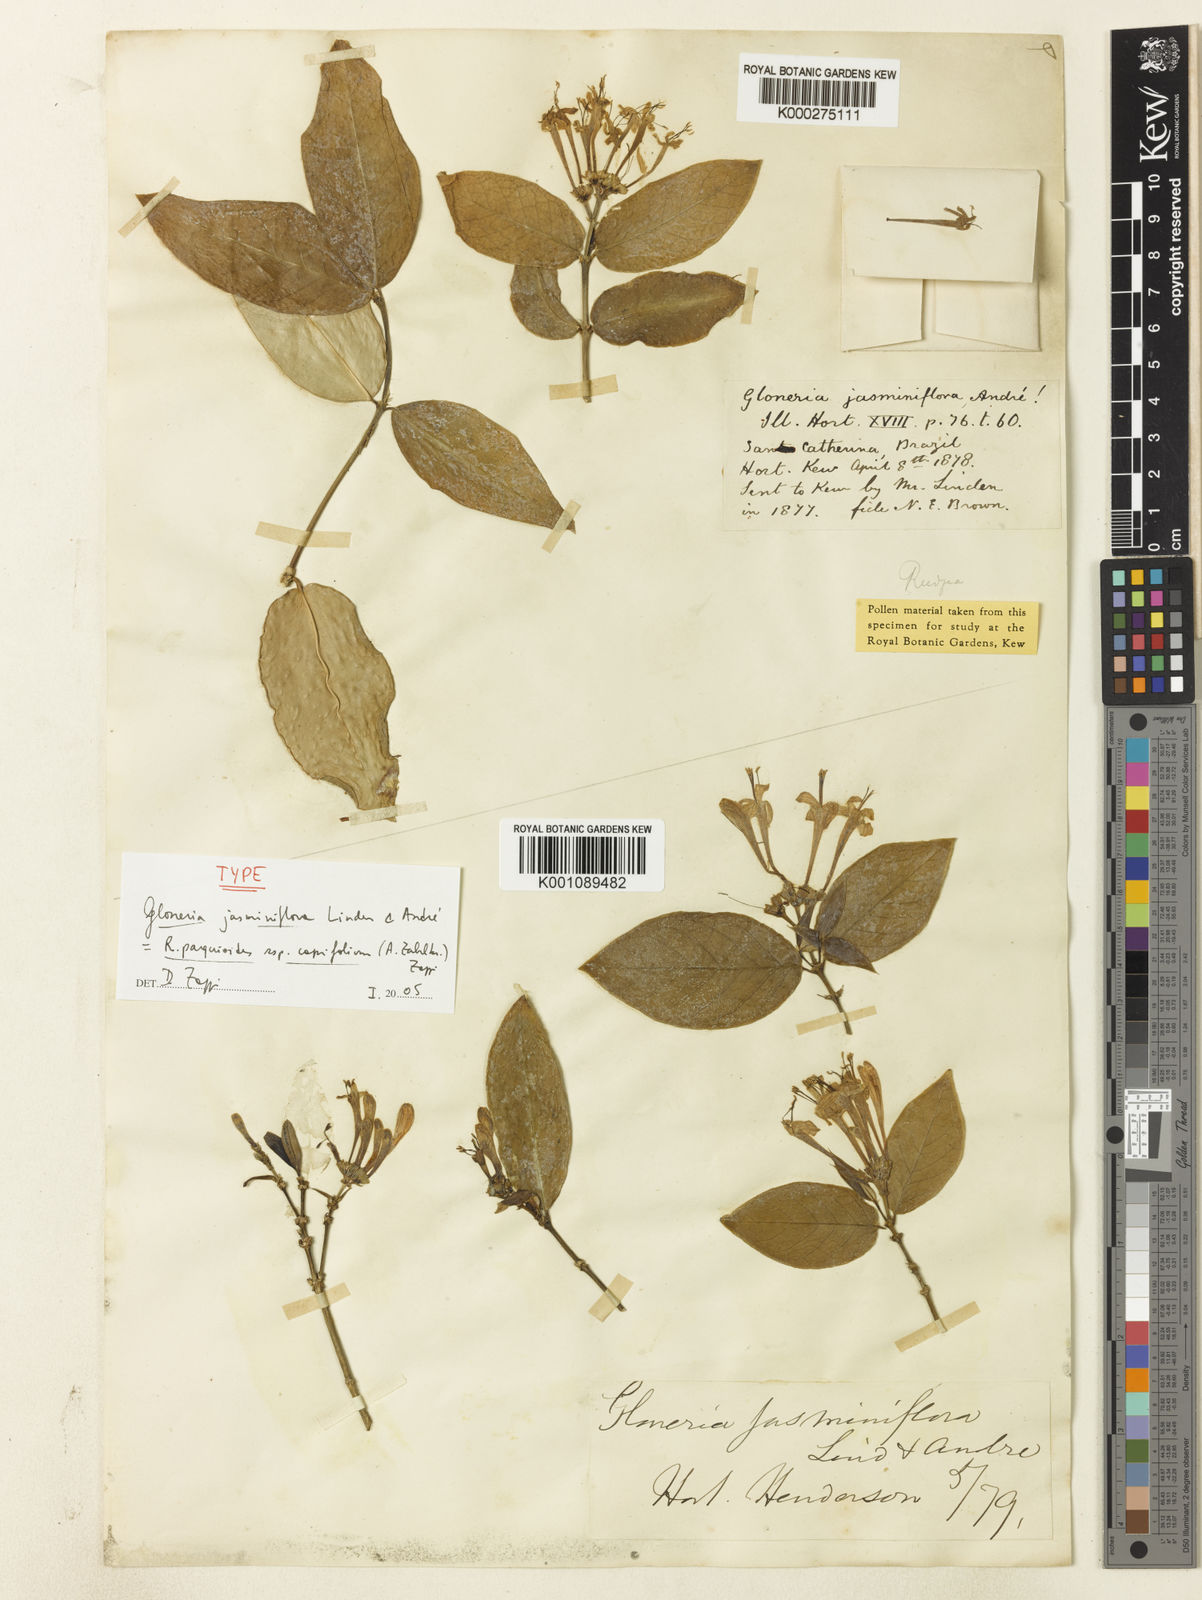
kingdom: Plantae
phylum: Tracheophyta
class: Magnoliopsida
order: Gentianales
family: Rubiaceae
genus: Rudgea
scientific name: Rudgea
